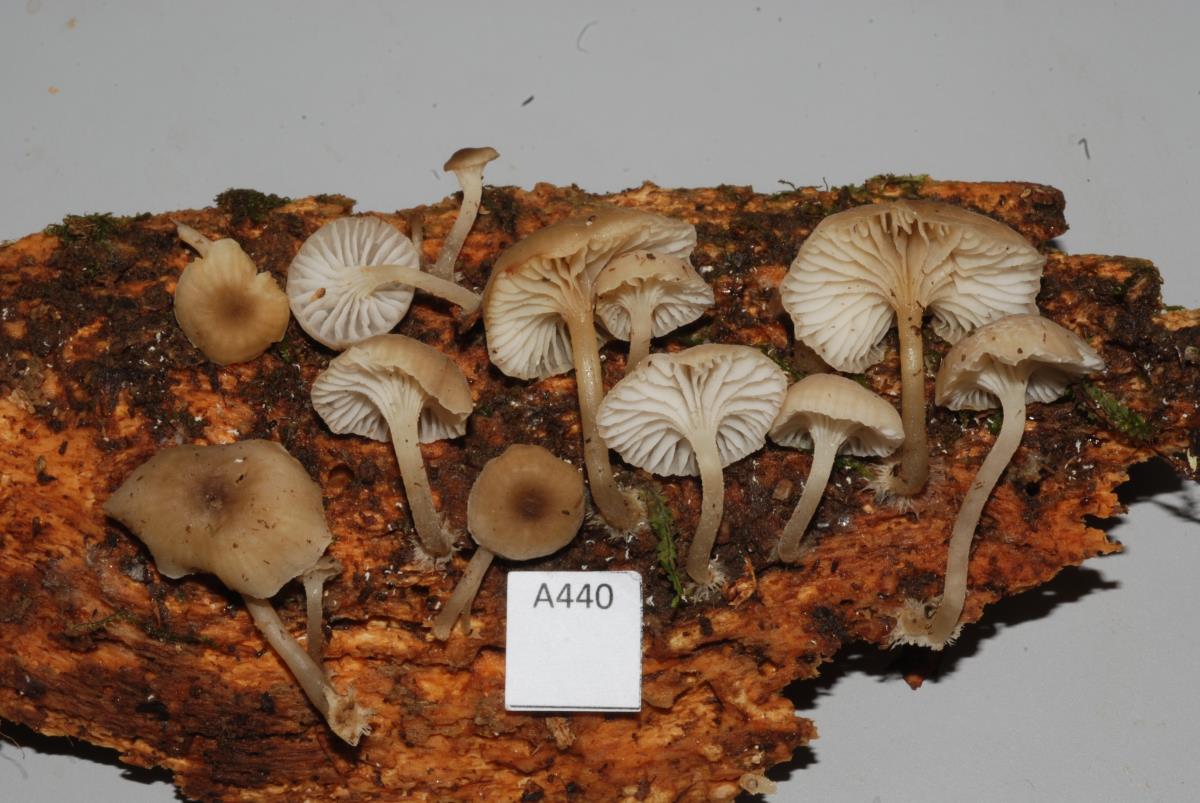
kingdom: Fungi
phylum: Basidiomycota
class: Agaricomycetes
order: Agaricales
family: Mycenaceae
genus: Hydropus
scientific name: Hydropus
